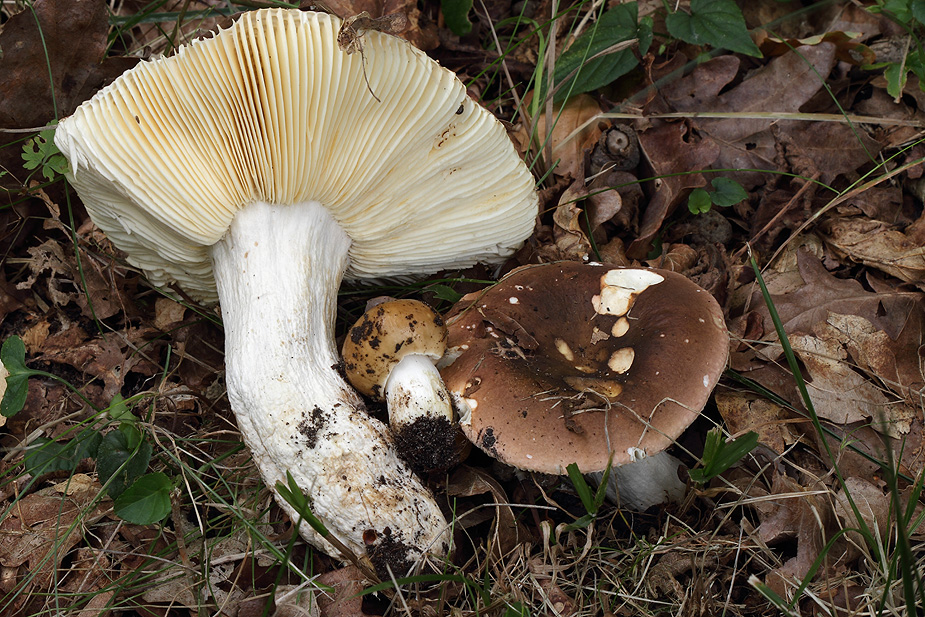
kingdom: Fungi
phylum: Basidiomycota
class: Agaricomycetes
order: Russulales
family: Russulaceae
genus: Russula
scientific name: Russula graveolens
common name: bugtet skørhat
